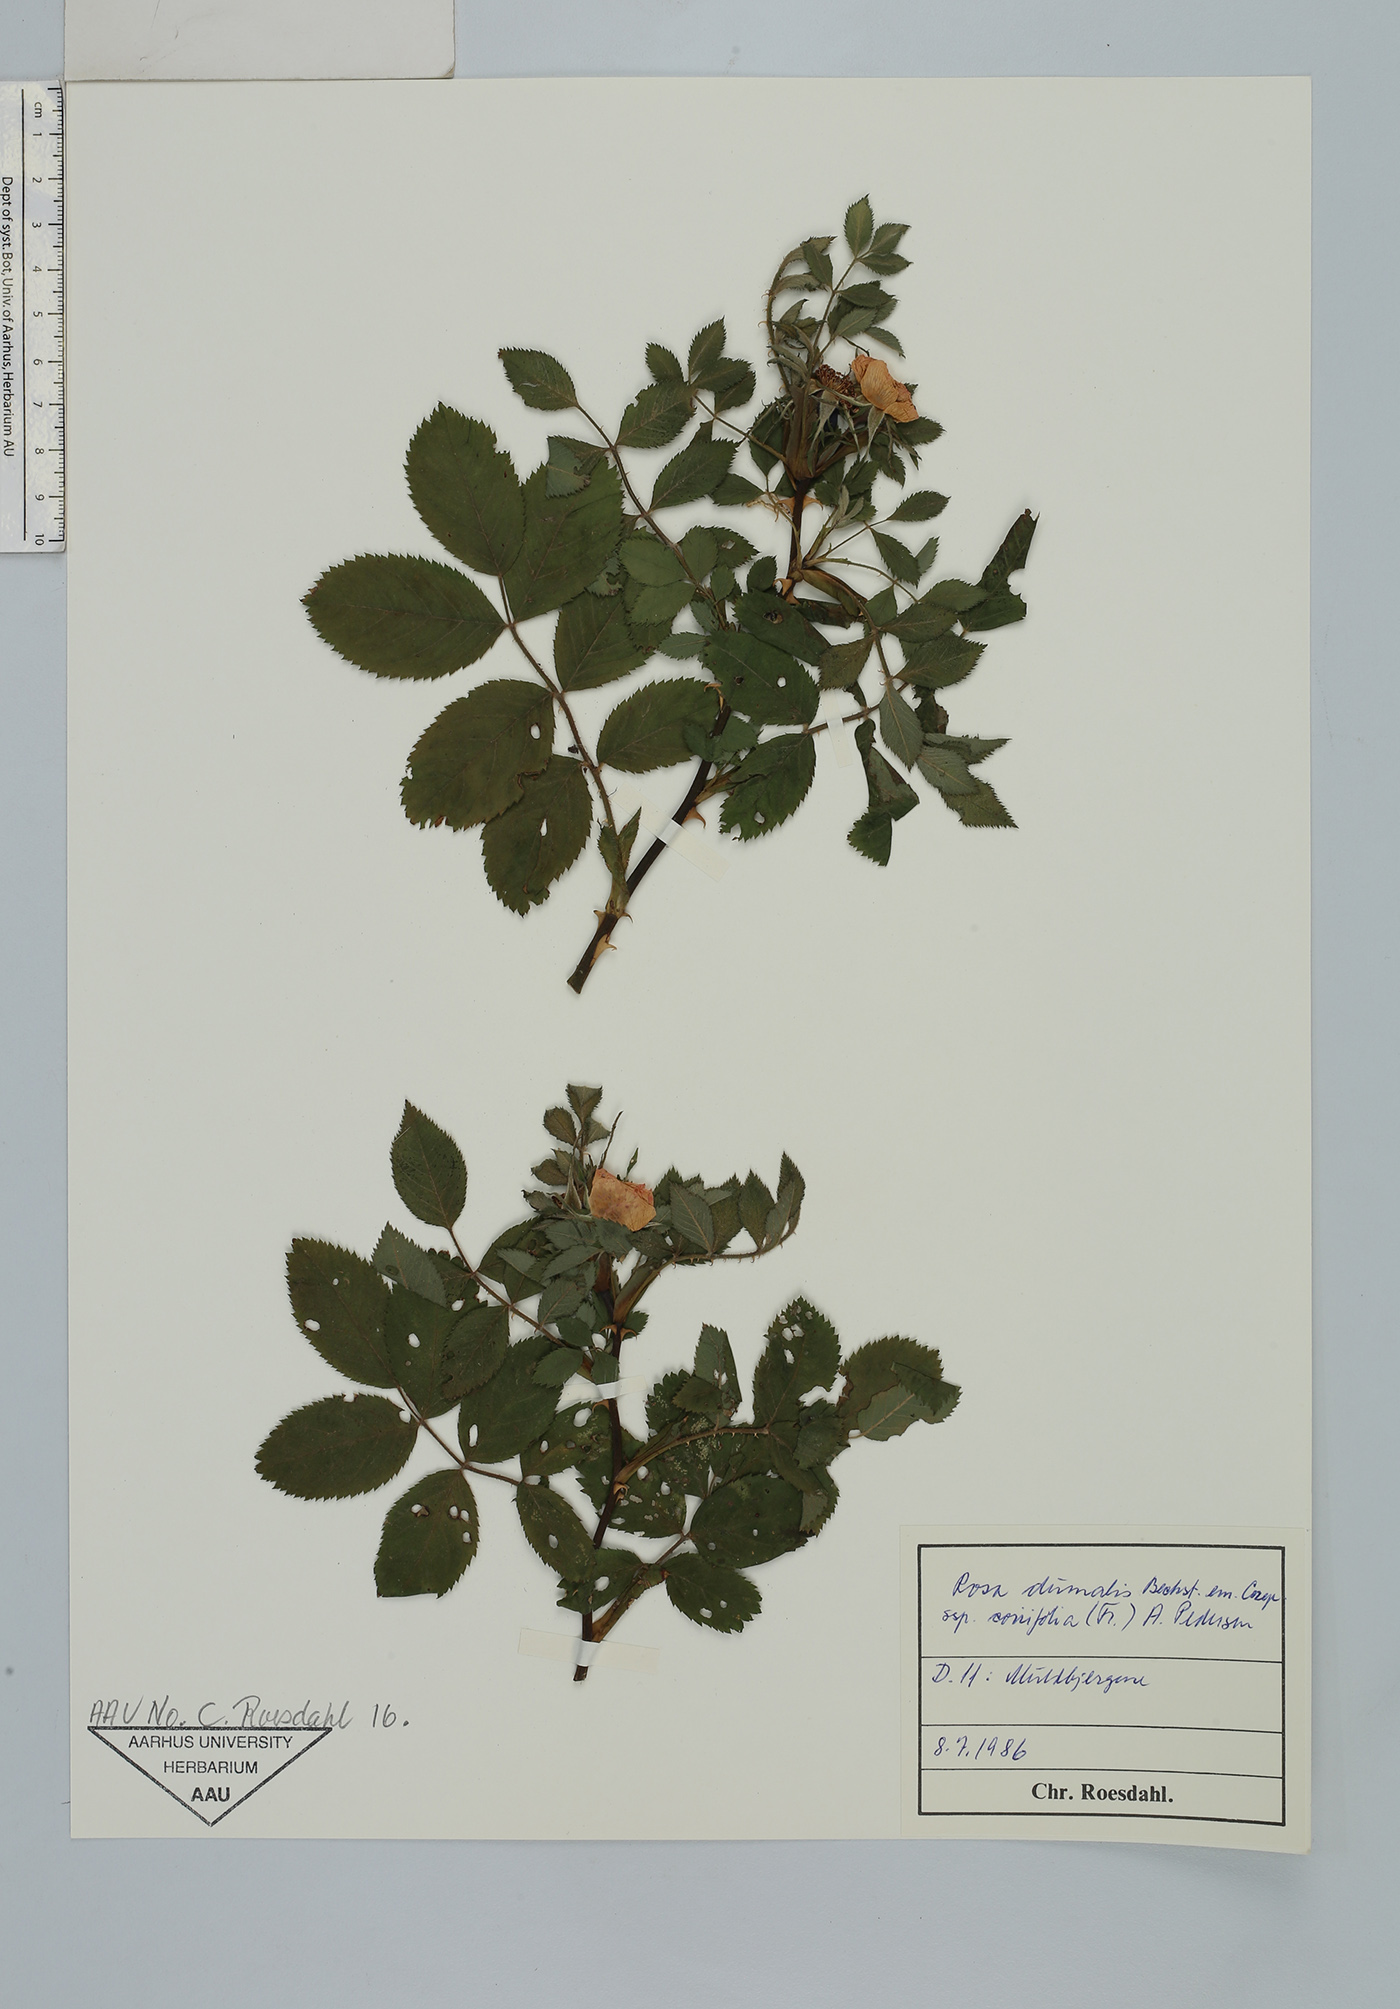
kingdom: Plantae
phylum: Tracheophyta
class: Magnoliopsida
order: Rosales
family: Rosaceae
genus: Rosa
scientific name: Rosa caesia
